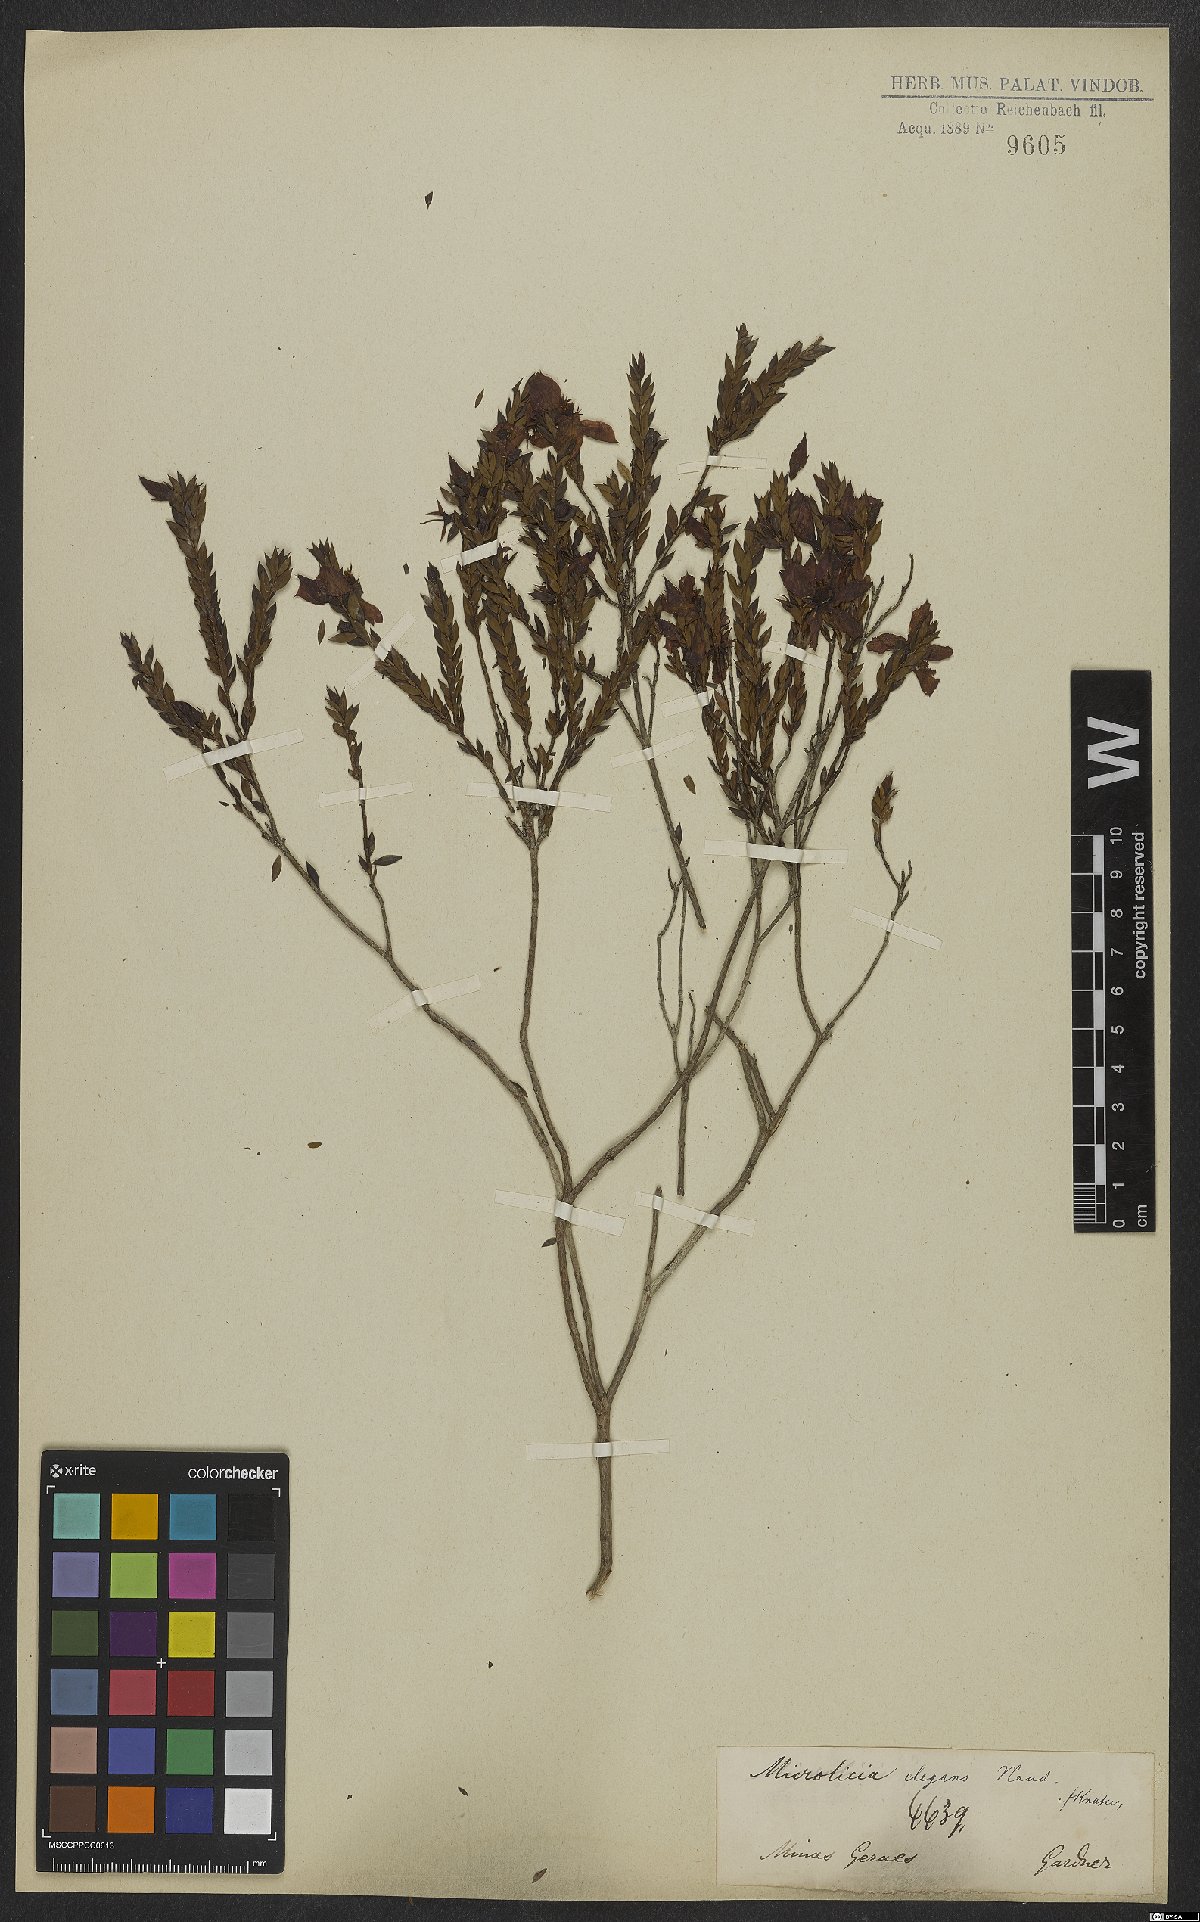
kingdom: Plantae
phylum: Tracheophyta
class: Magnoliopsida
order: Myrtales
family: Melastomataceae
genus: Microlicia
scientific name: Microlicia elegans
